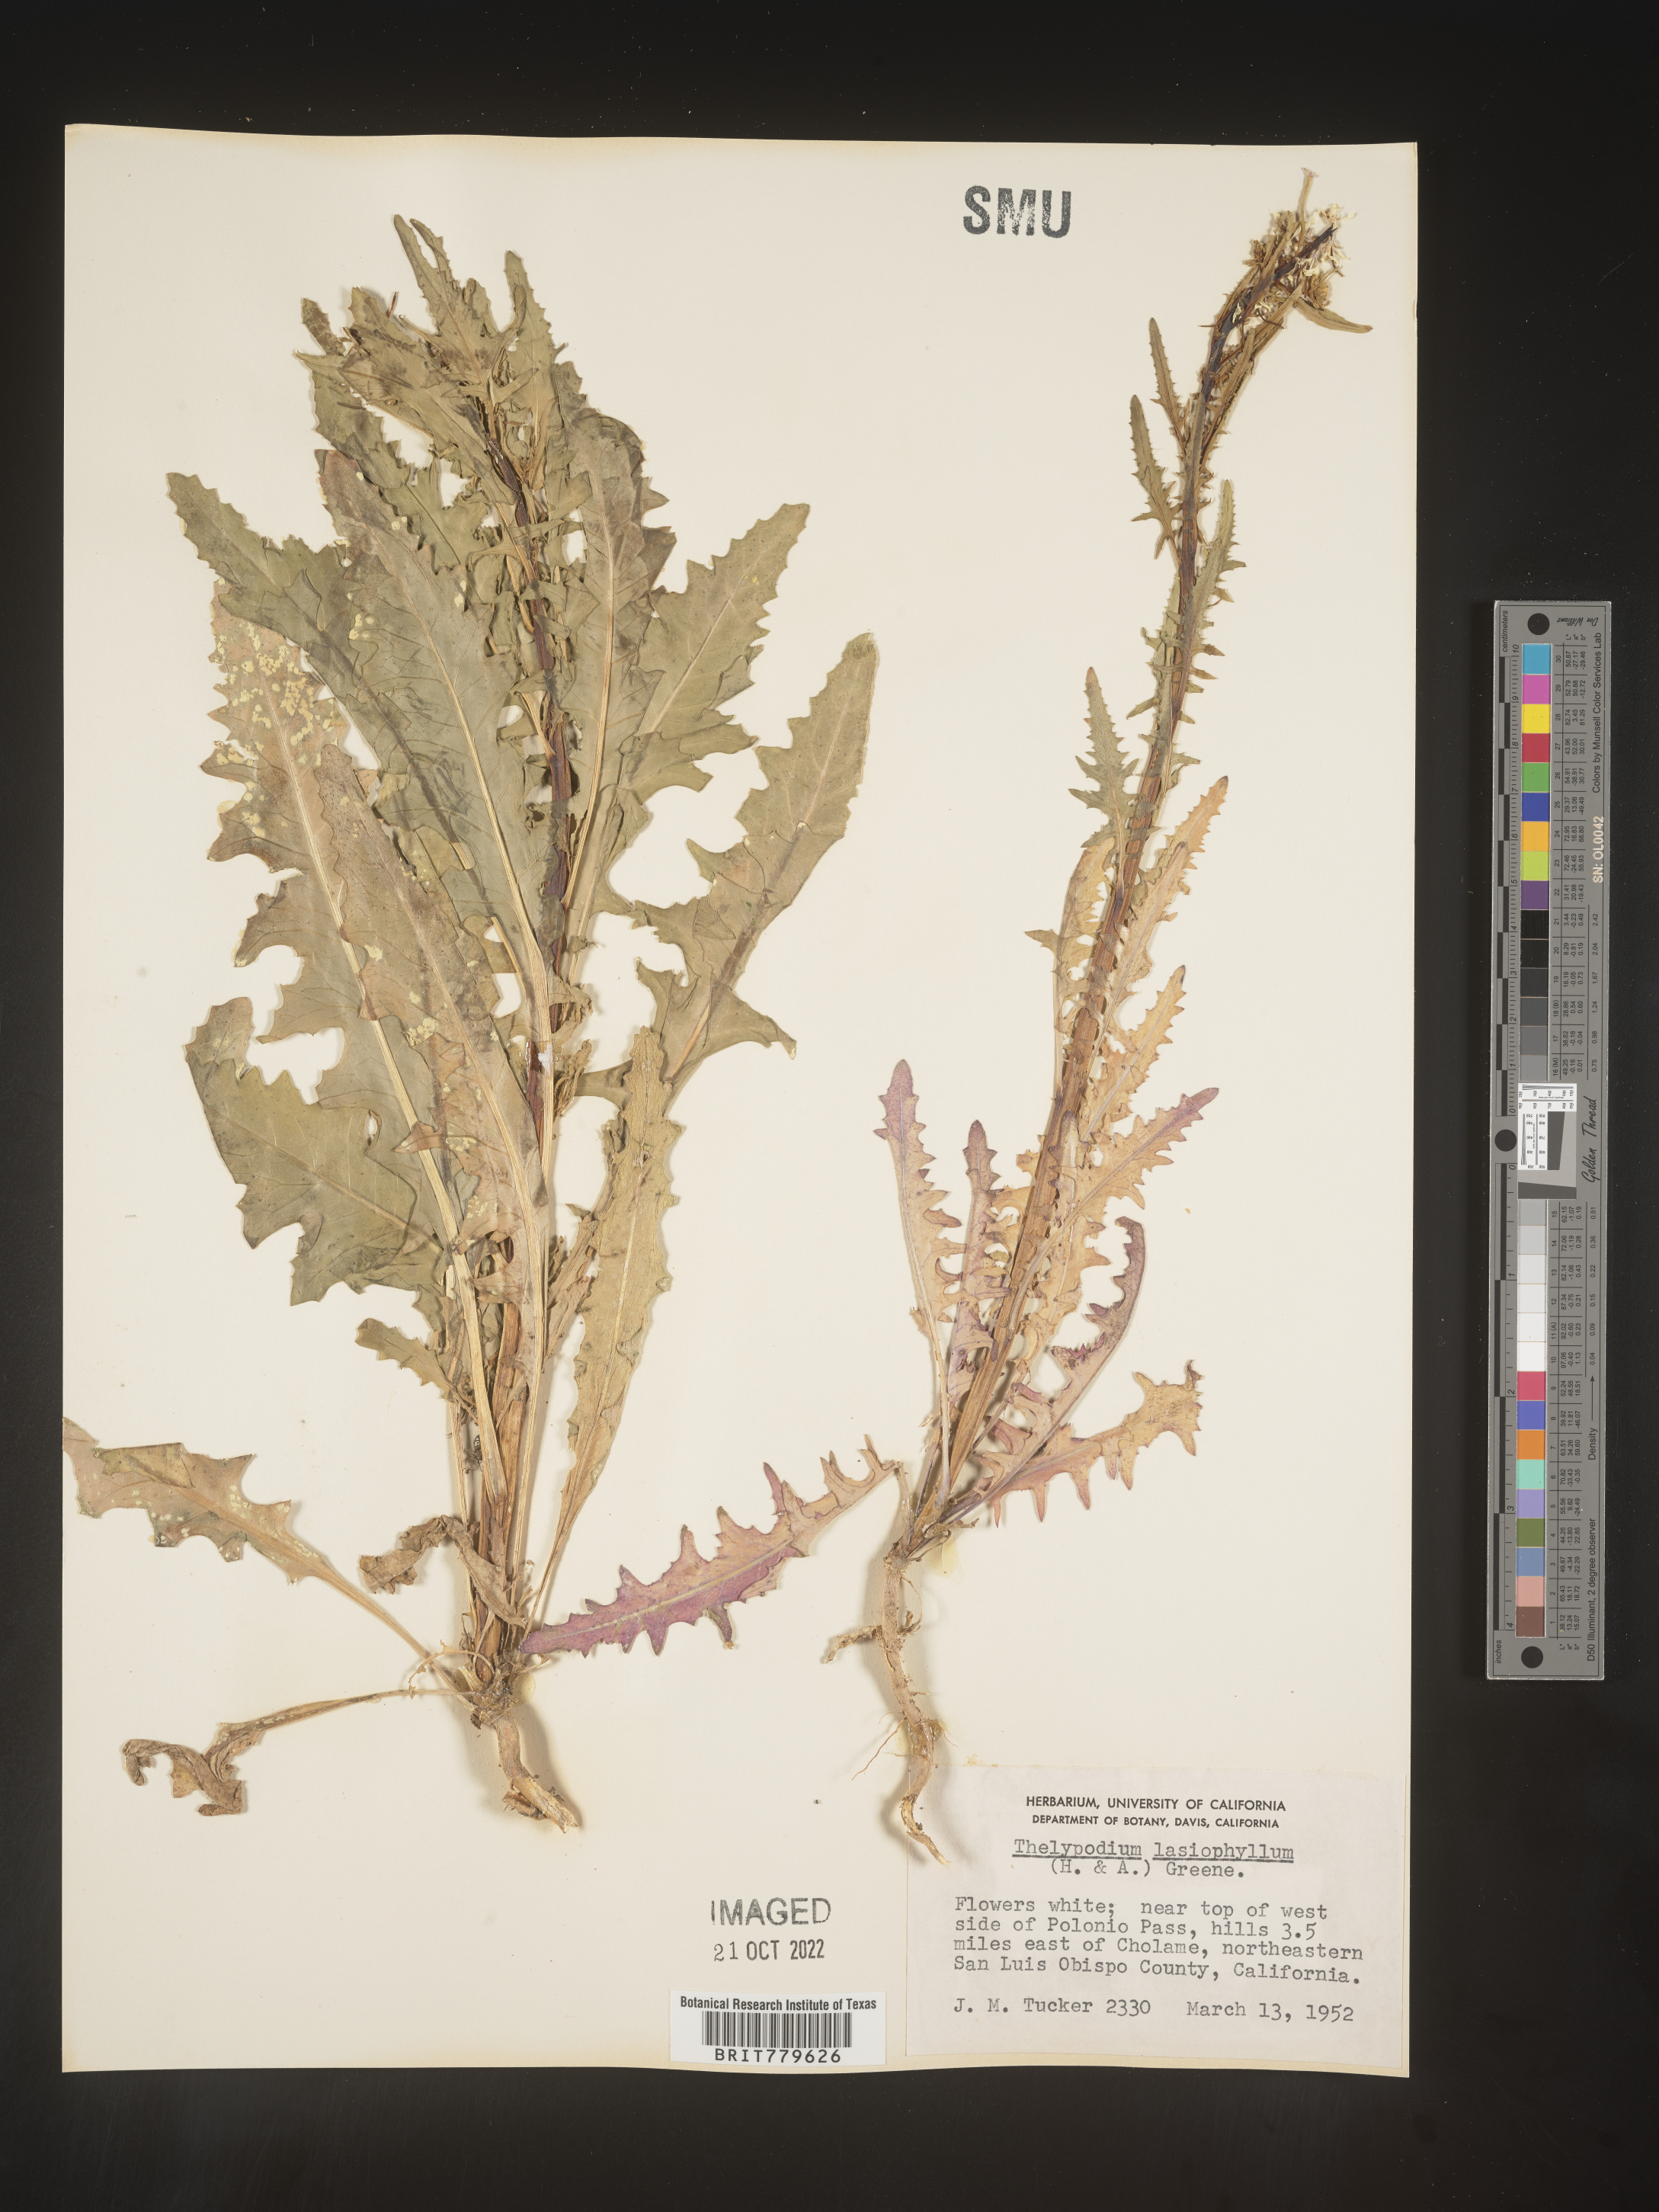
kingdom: Plantae
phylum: Tracheophyta
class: Magnoliopsida
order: Brassicales
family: Brassicaceae
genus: Thelypodium
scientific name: Thelypodium
